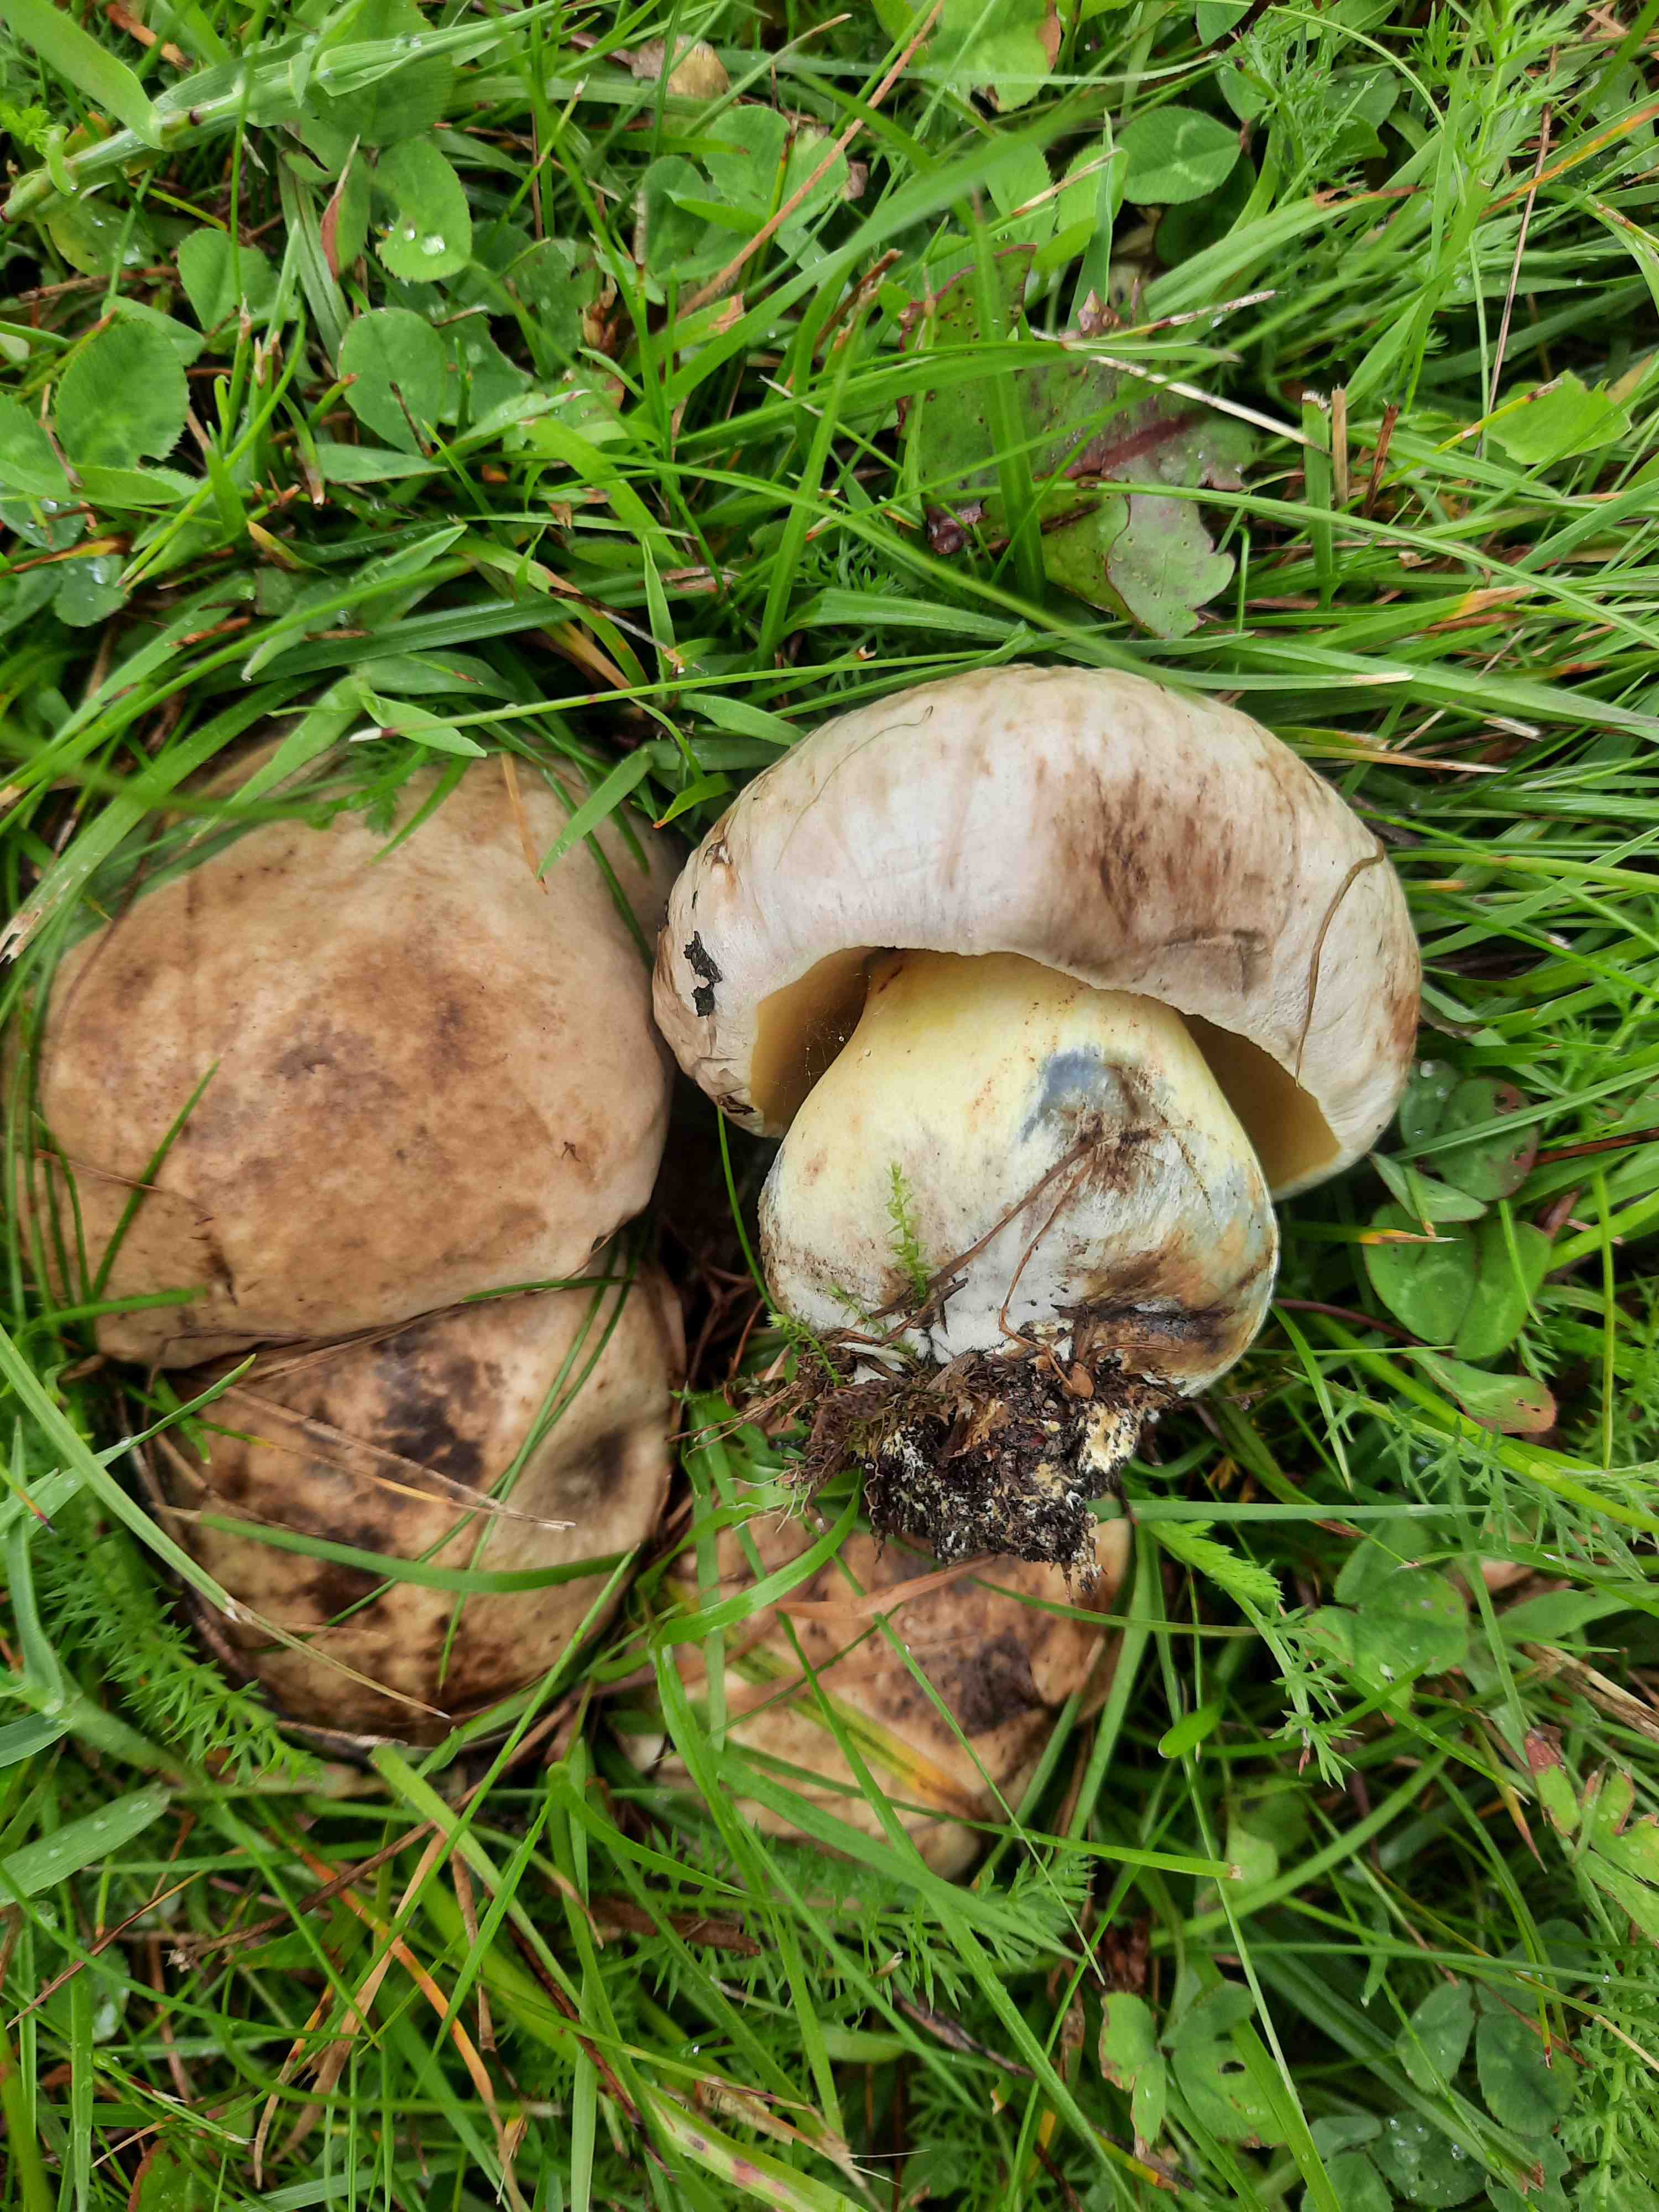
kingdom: Fungi
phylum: Basidiomycota
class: Agaricomycetes
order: Boletales
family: Boletaceae
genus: Caloboletus
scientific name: Caloboletus radicans
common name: rod-rørhat
